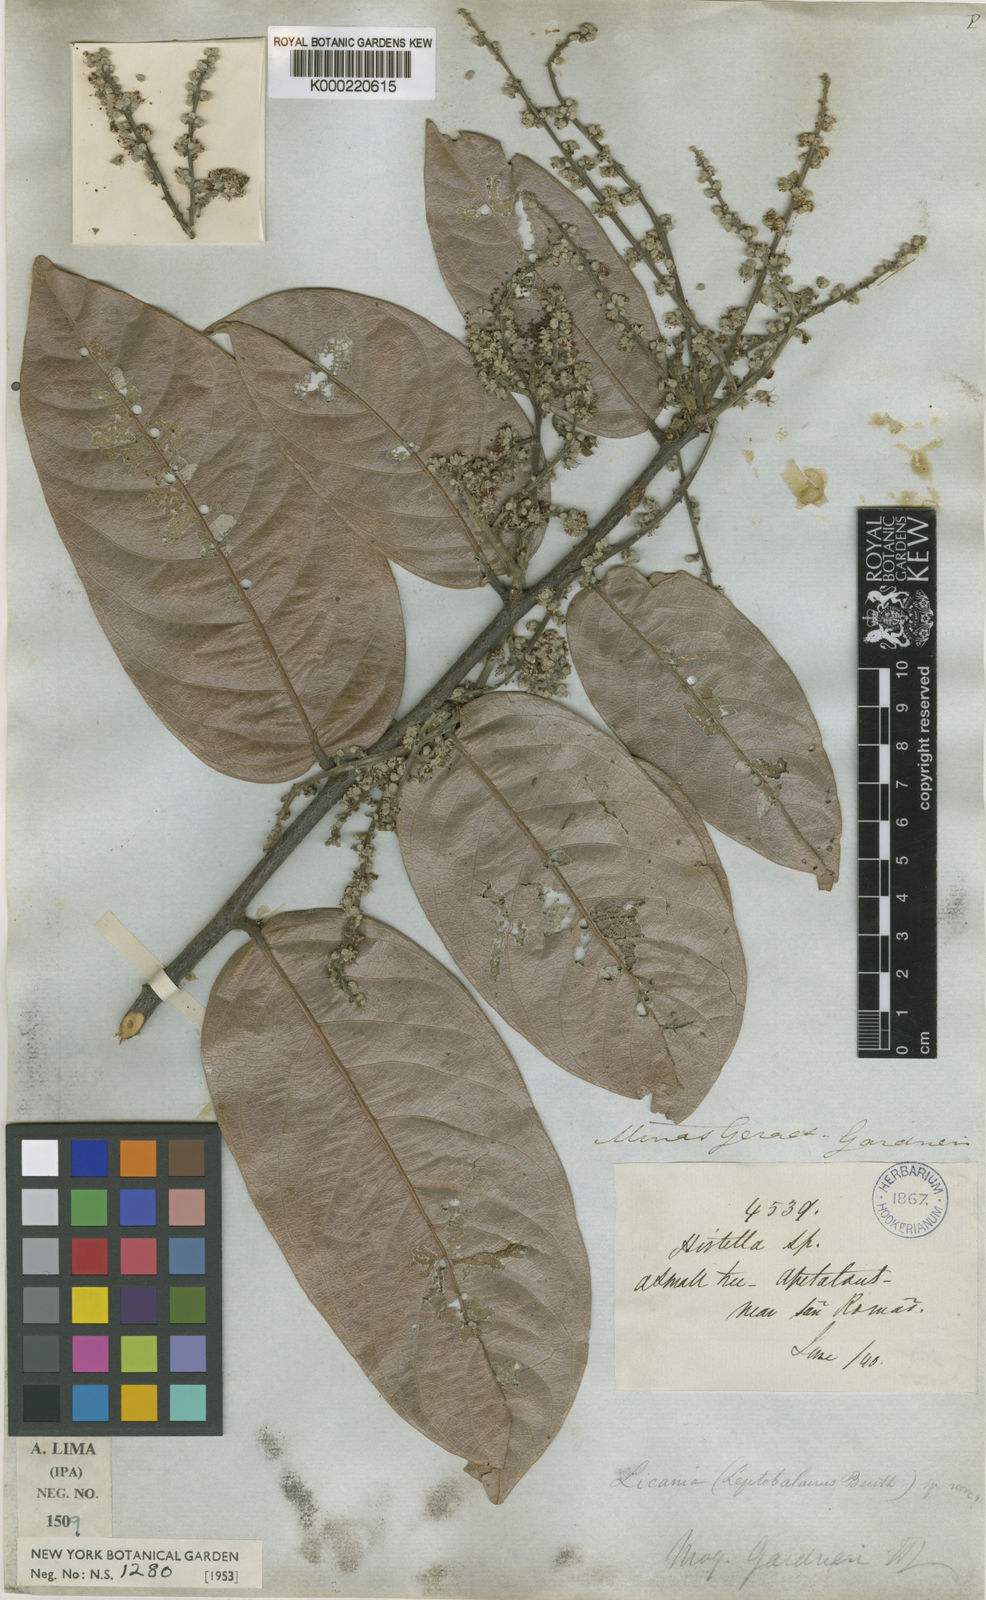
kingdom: Plantae
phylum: Tracheophyta
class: Magnoliopsida
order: Malpighiales
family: Chrysobalanaceae
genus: Leptobalanus
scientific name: Leptobalanus gardneri
